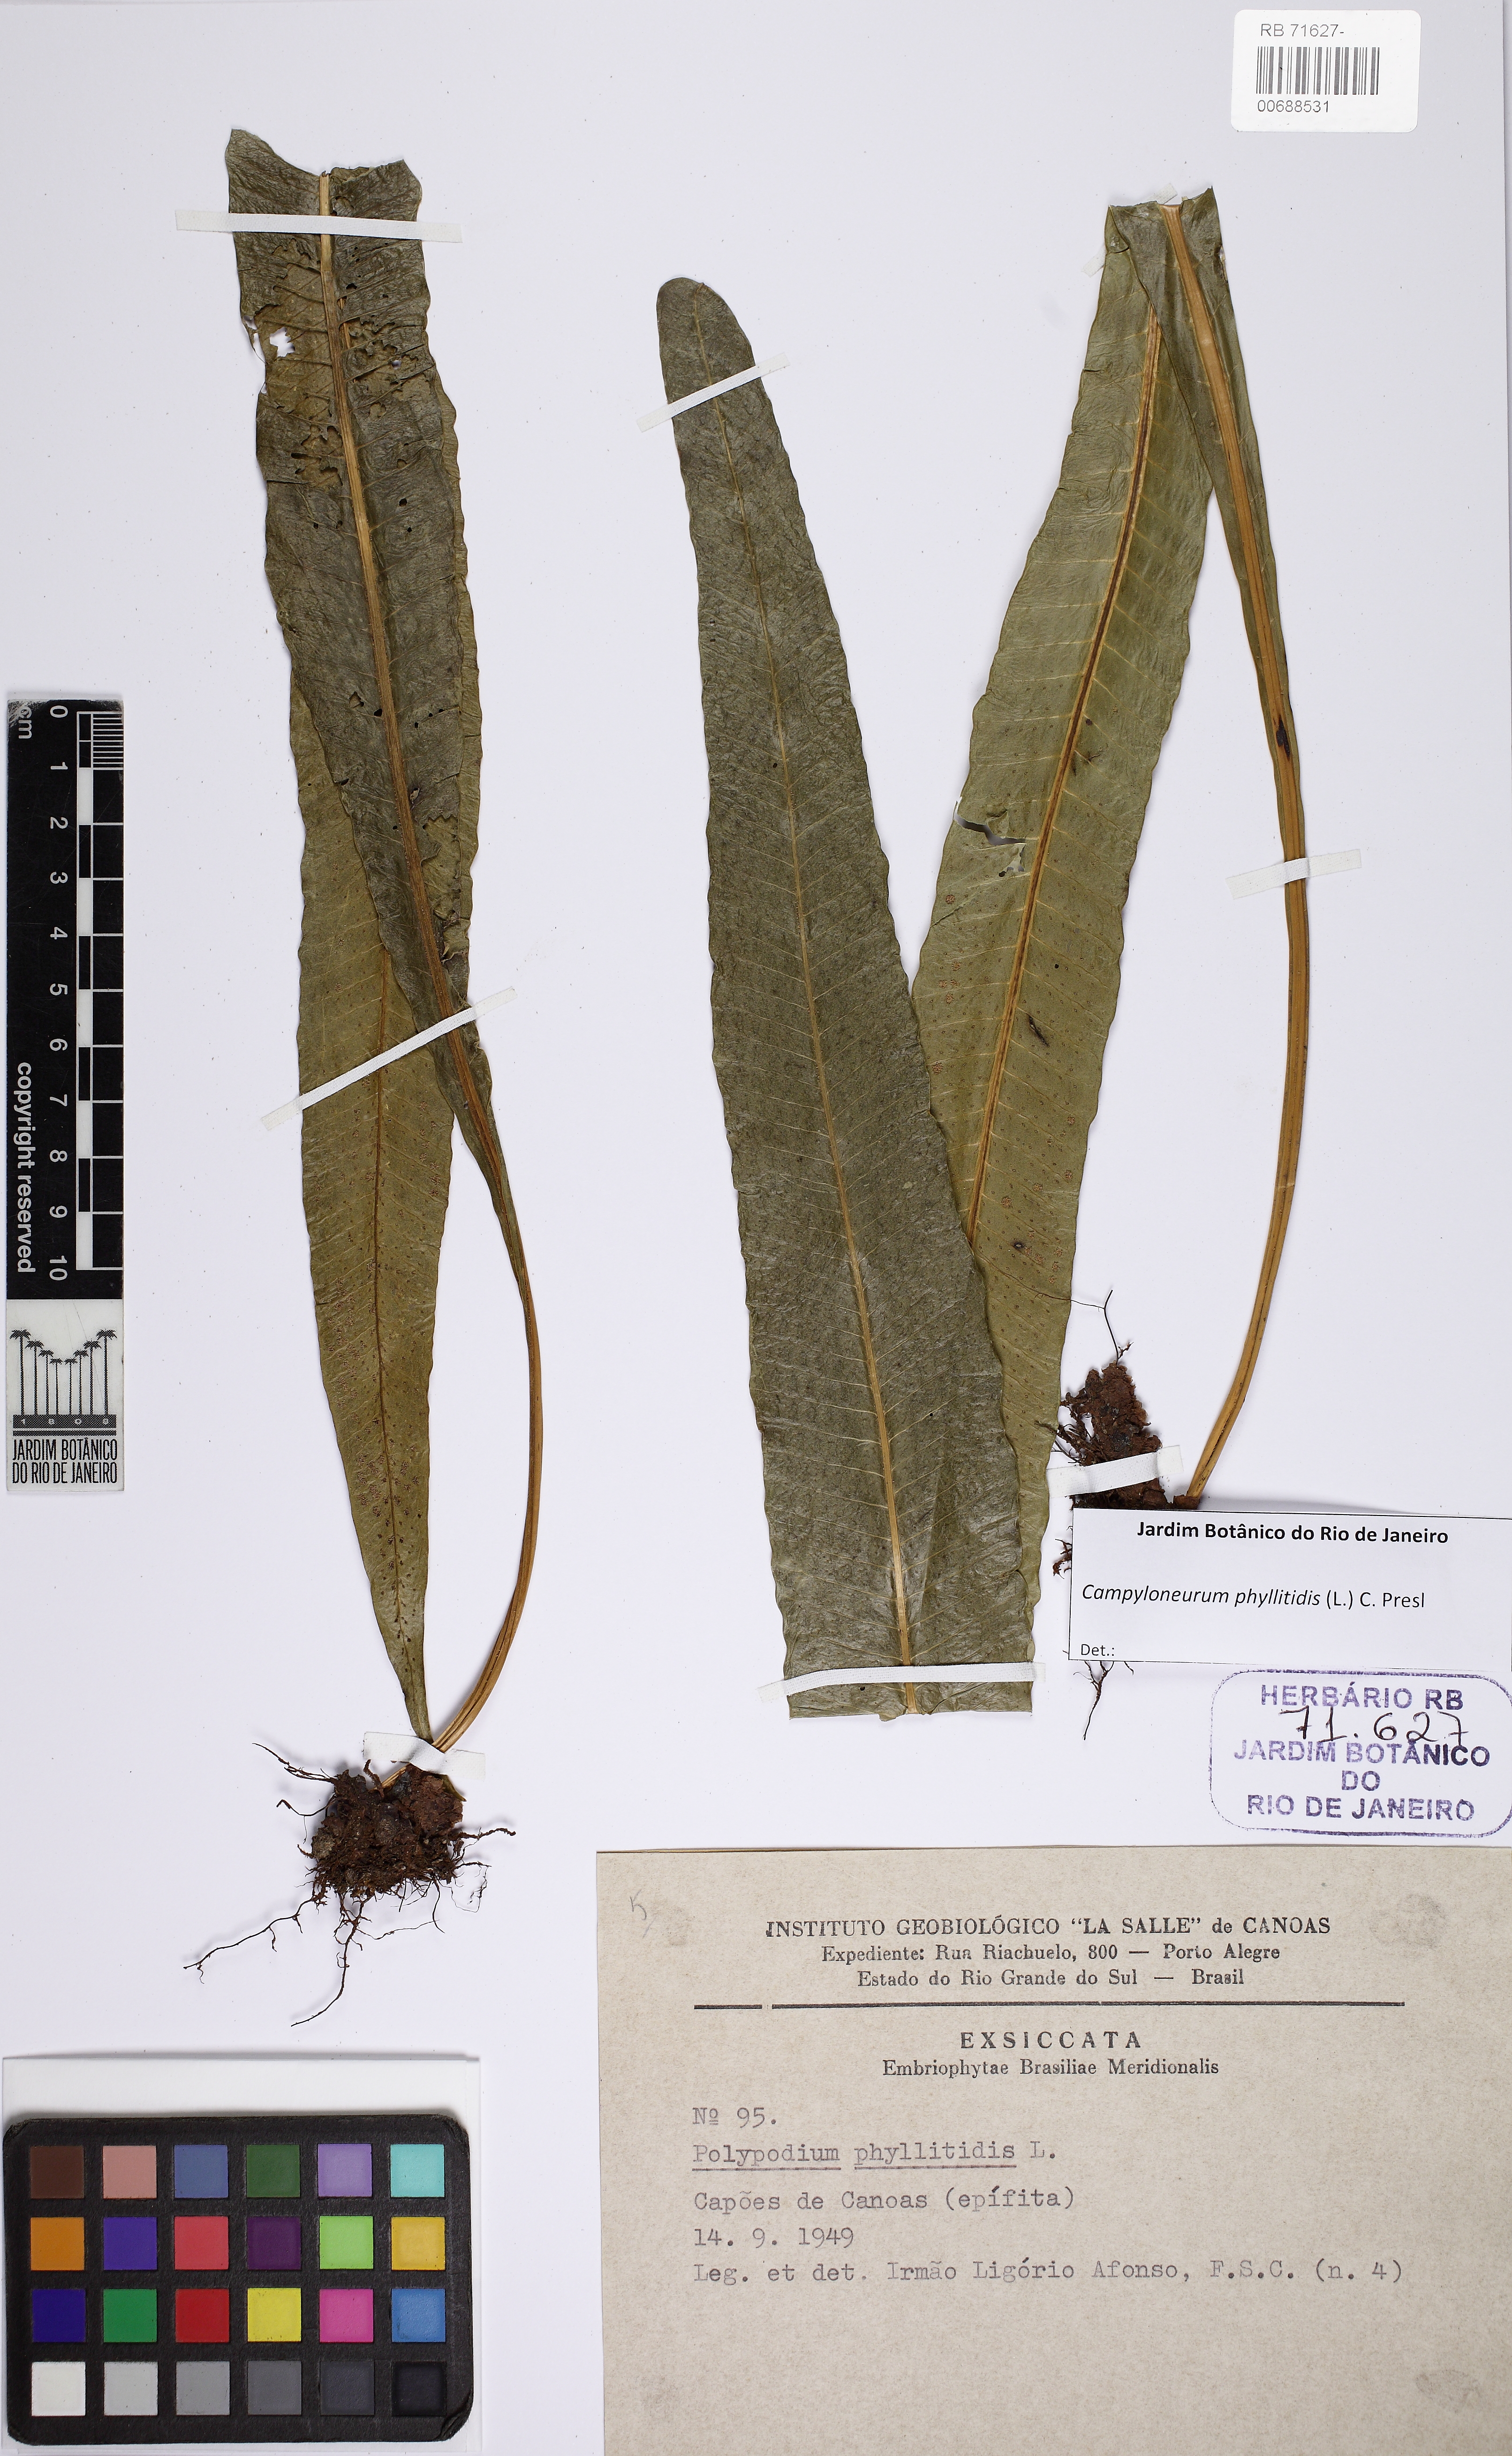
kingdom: Plantae
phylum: Tracheophyta
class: Polypodiopsida
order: Polypodiales
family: Polypodiaceae
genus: Campyloneurum
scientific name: Campyloneurum phyllitidis
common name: Cow-tongue fern
